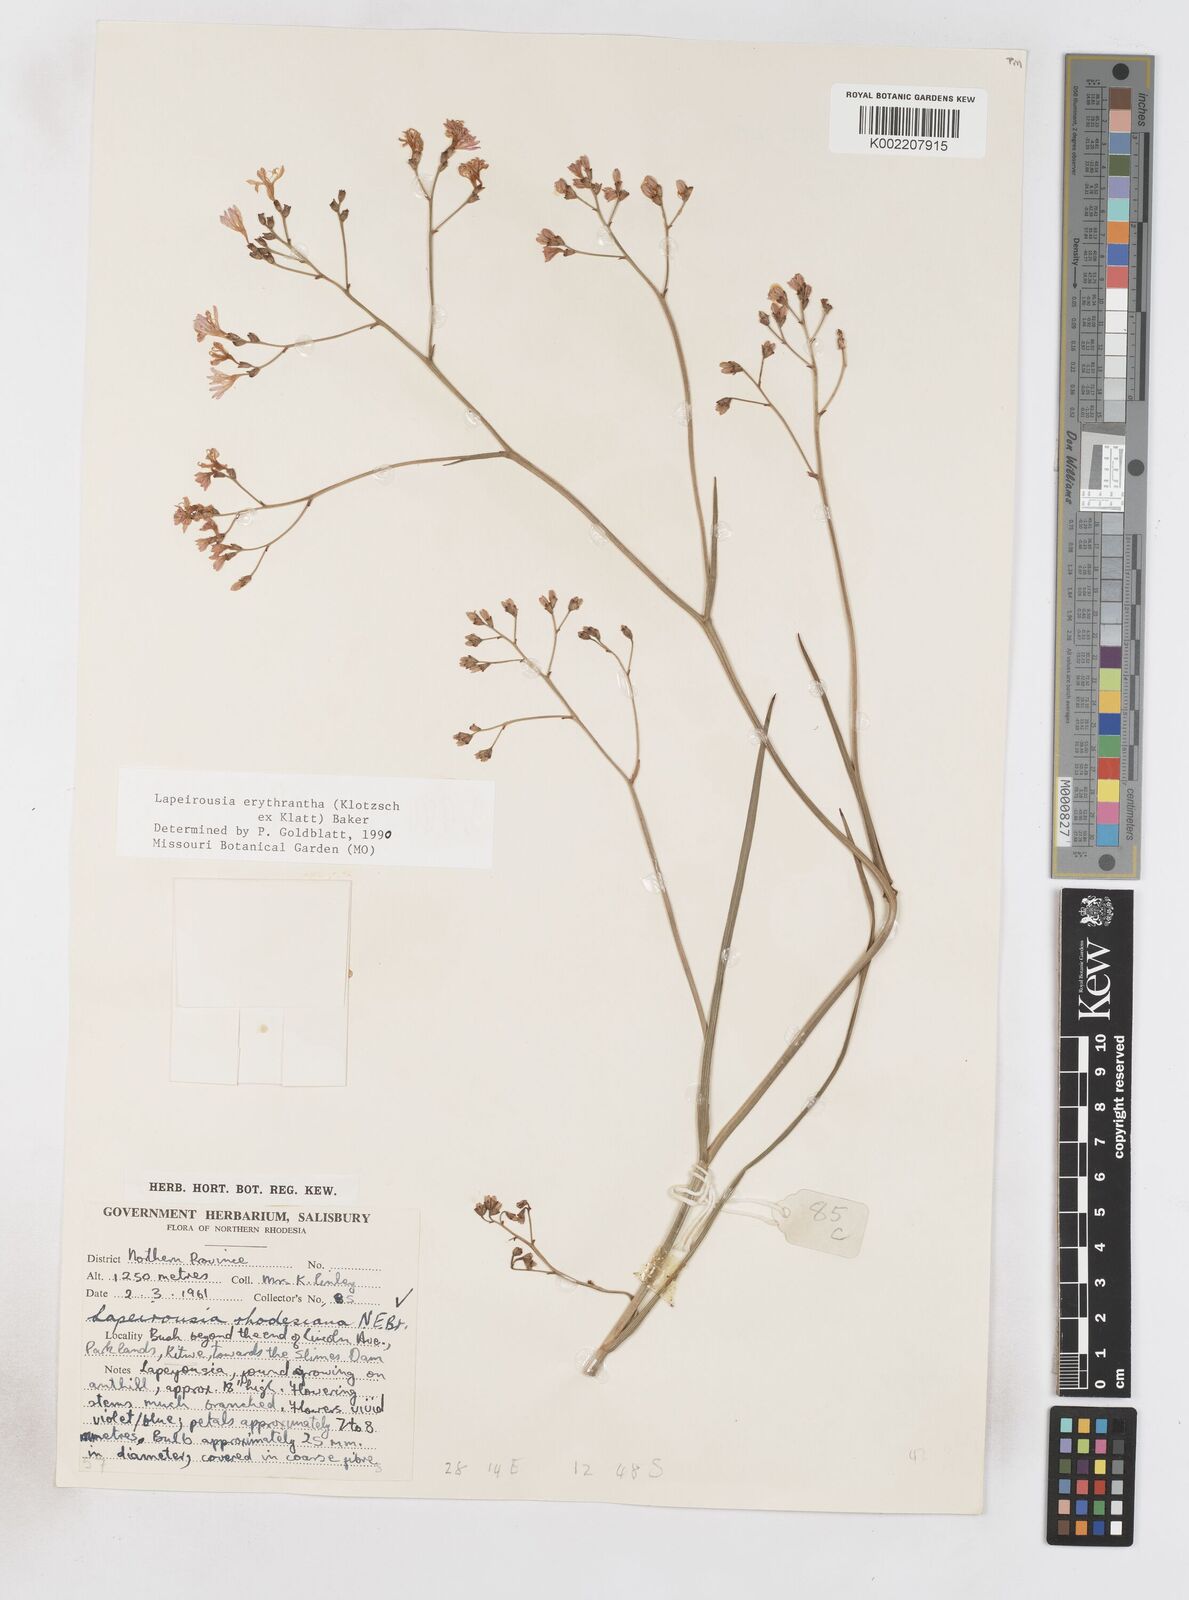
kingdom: Plantae
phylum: Tracheophyta
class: Liliopsida
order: Asparagales
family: Iridaceae
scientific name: Iridaceae
